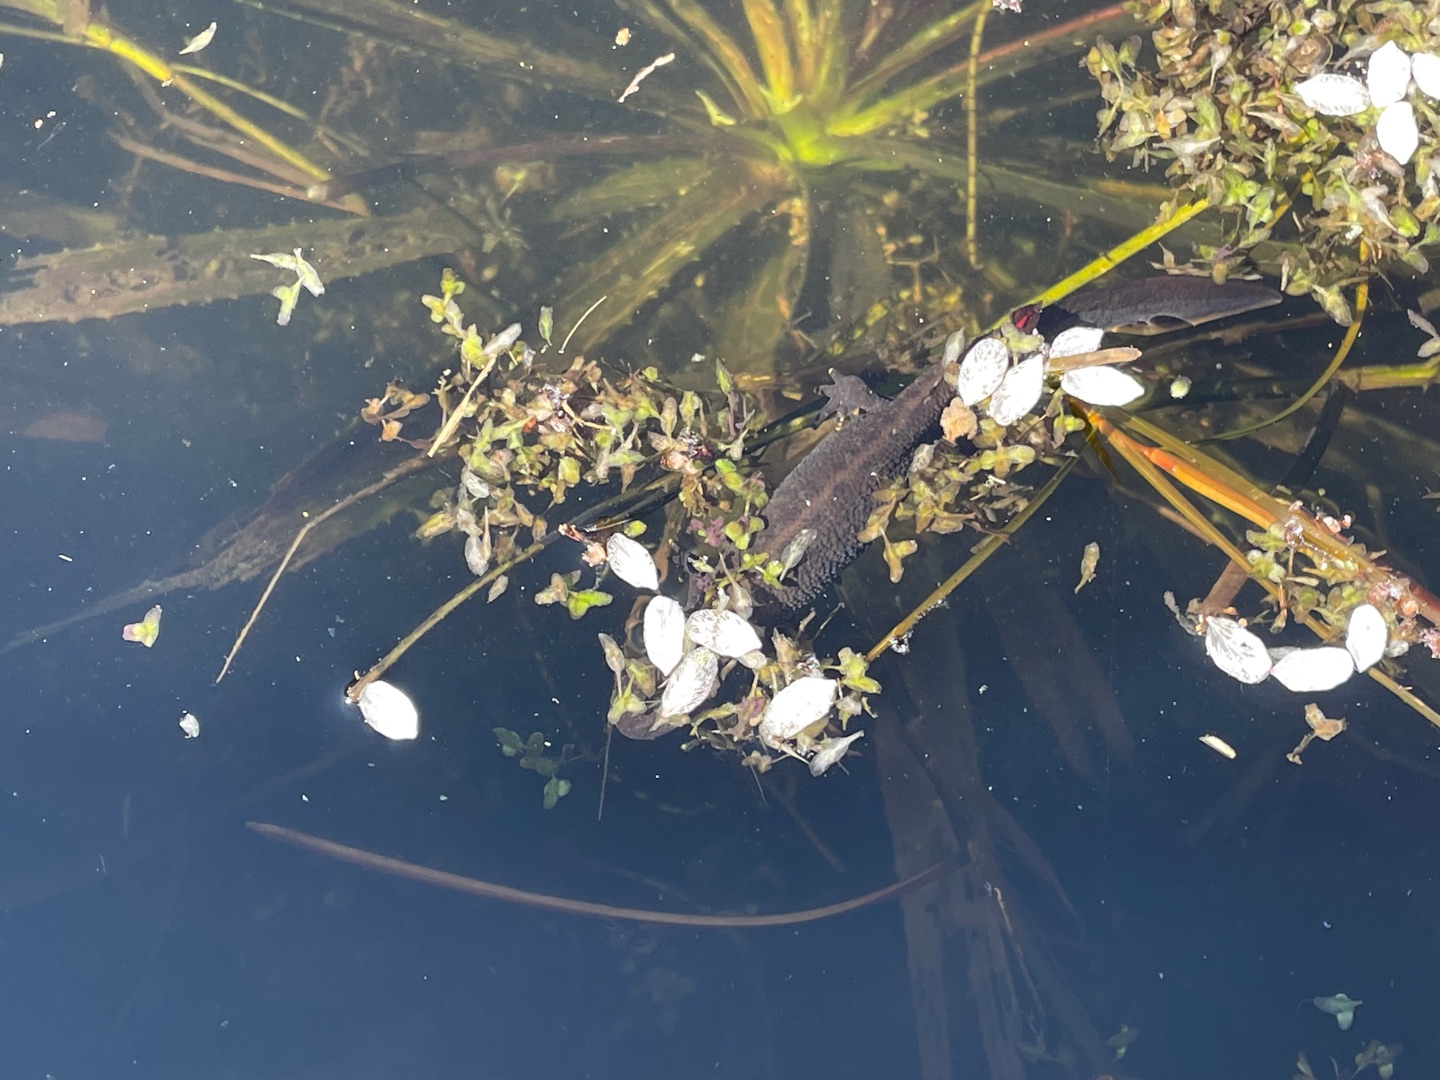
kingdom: Animalia
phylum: Chordata
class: Amphibia
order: Caudata
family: Salamandridae
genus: Triturus
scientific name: Triturus cristatus
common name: Stor vandsalamander
